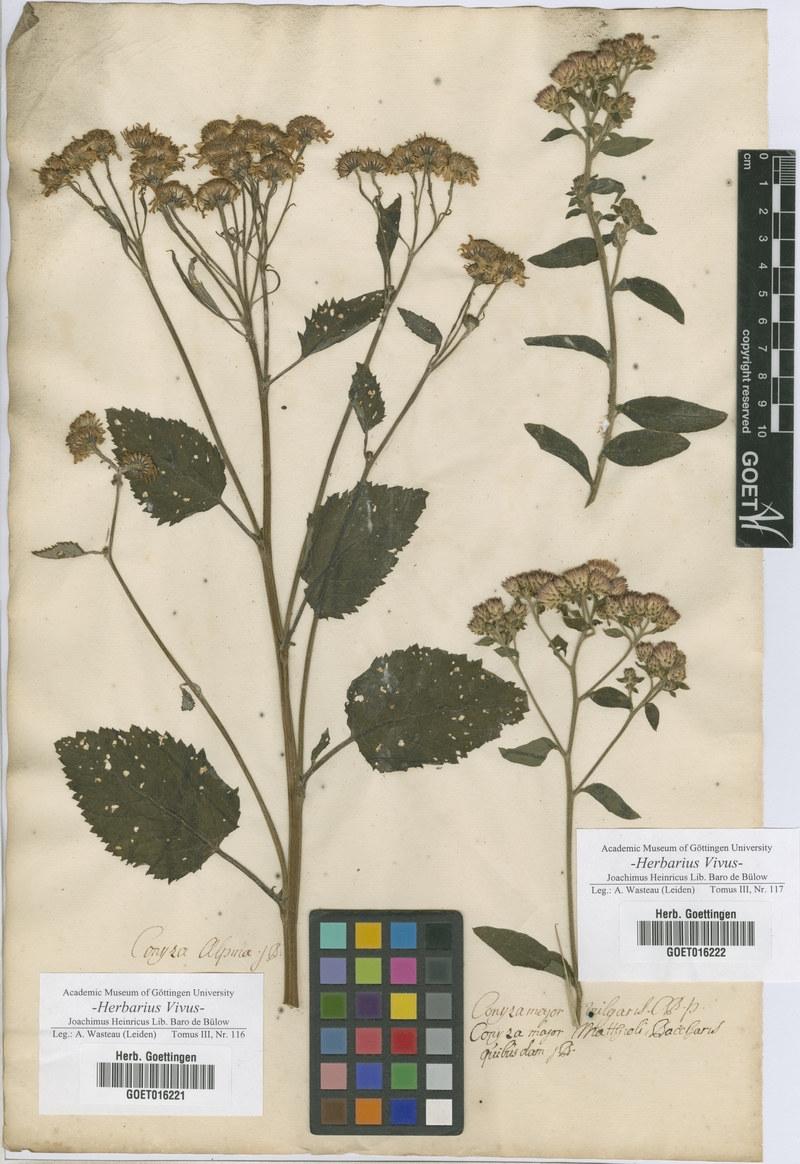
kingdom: Plantae
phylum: Tracheophyta
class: Magnoliopsida
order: Asterales
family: Asteraceae
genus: Conyza
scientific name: Conyza
